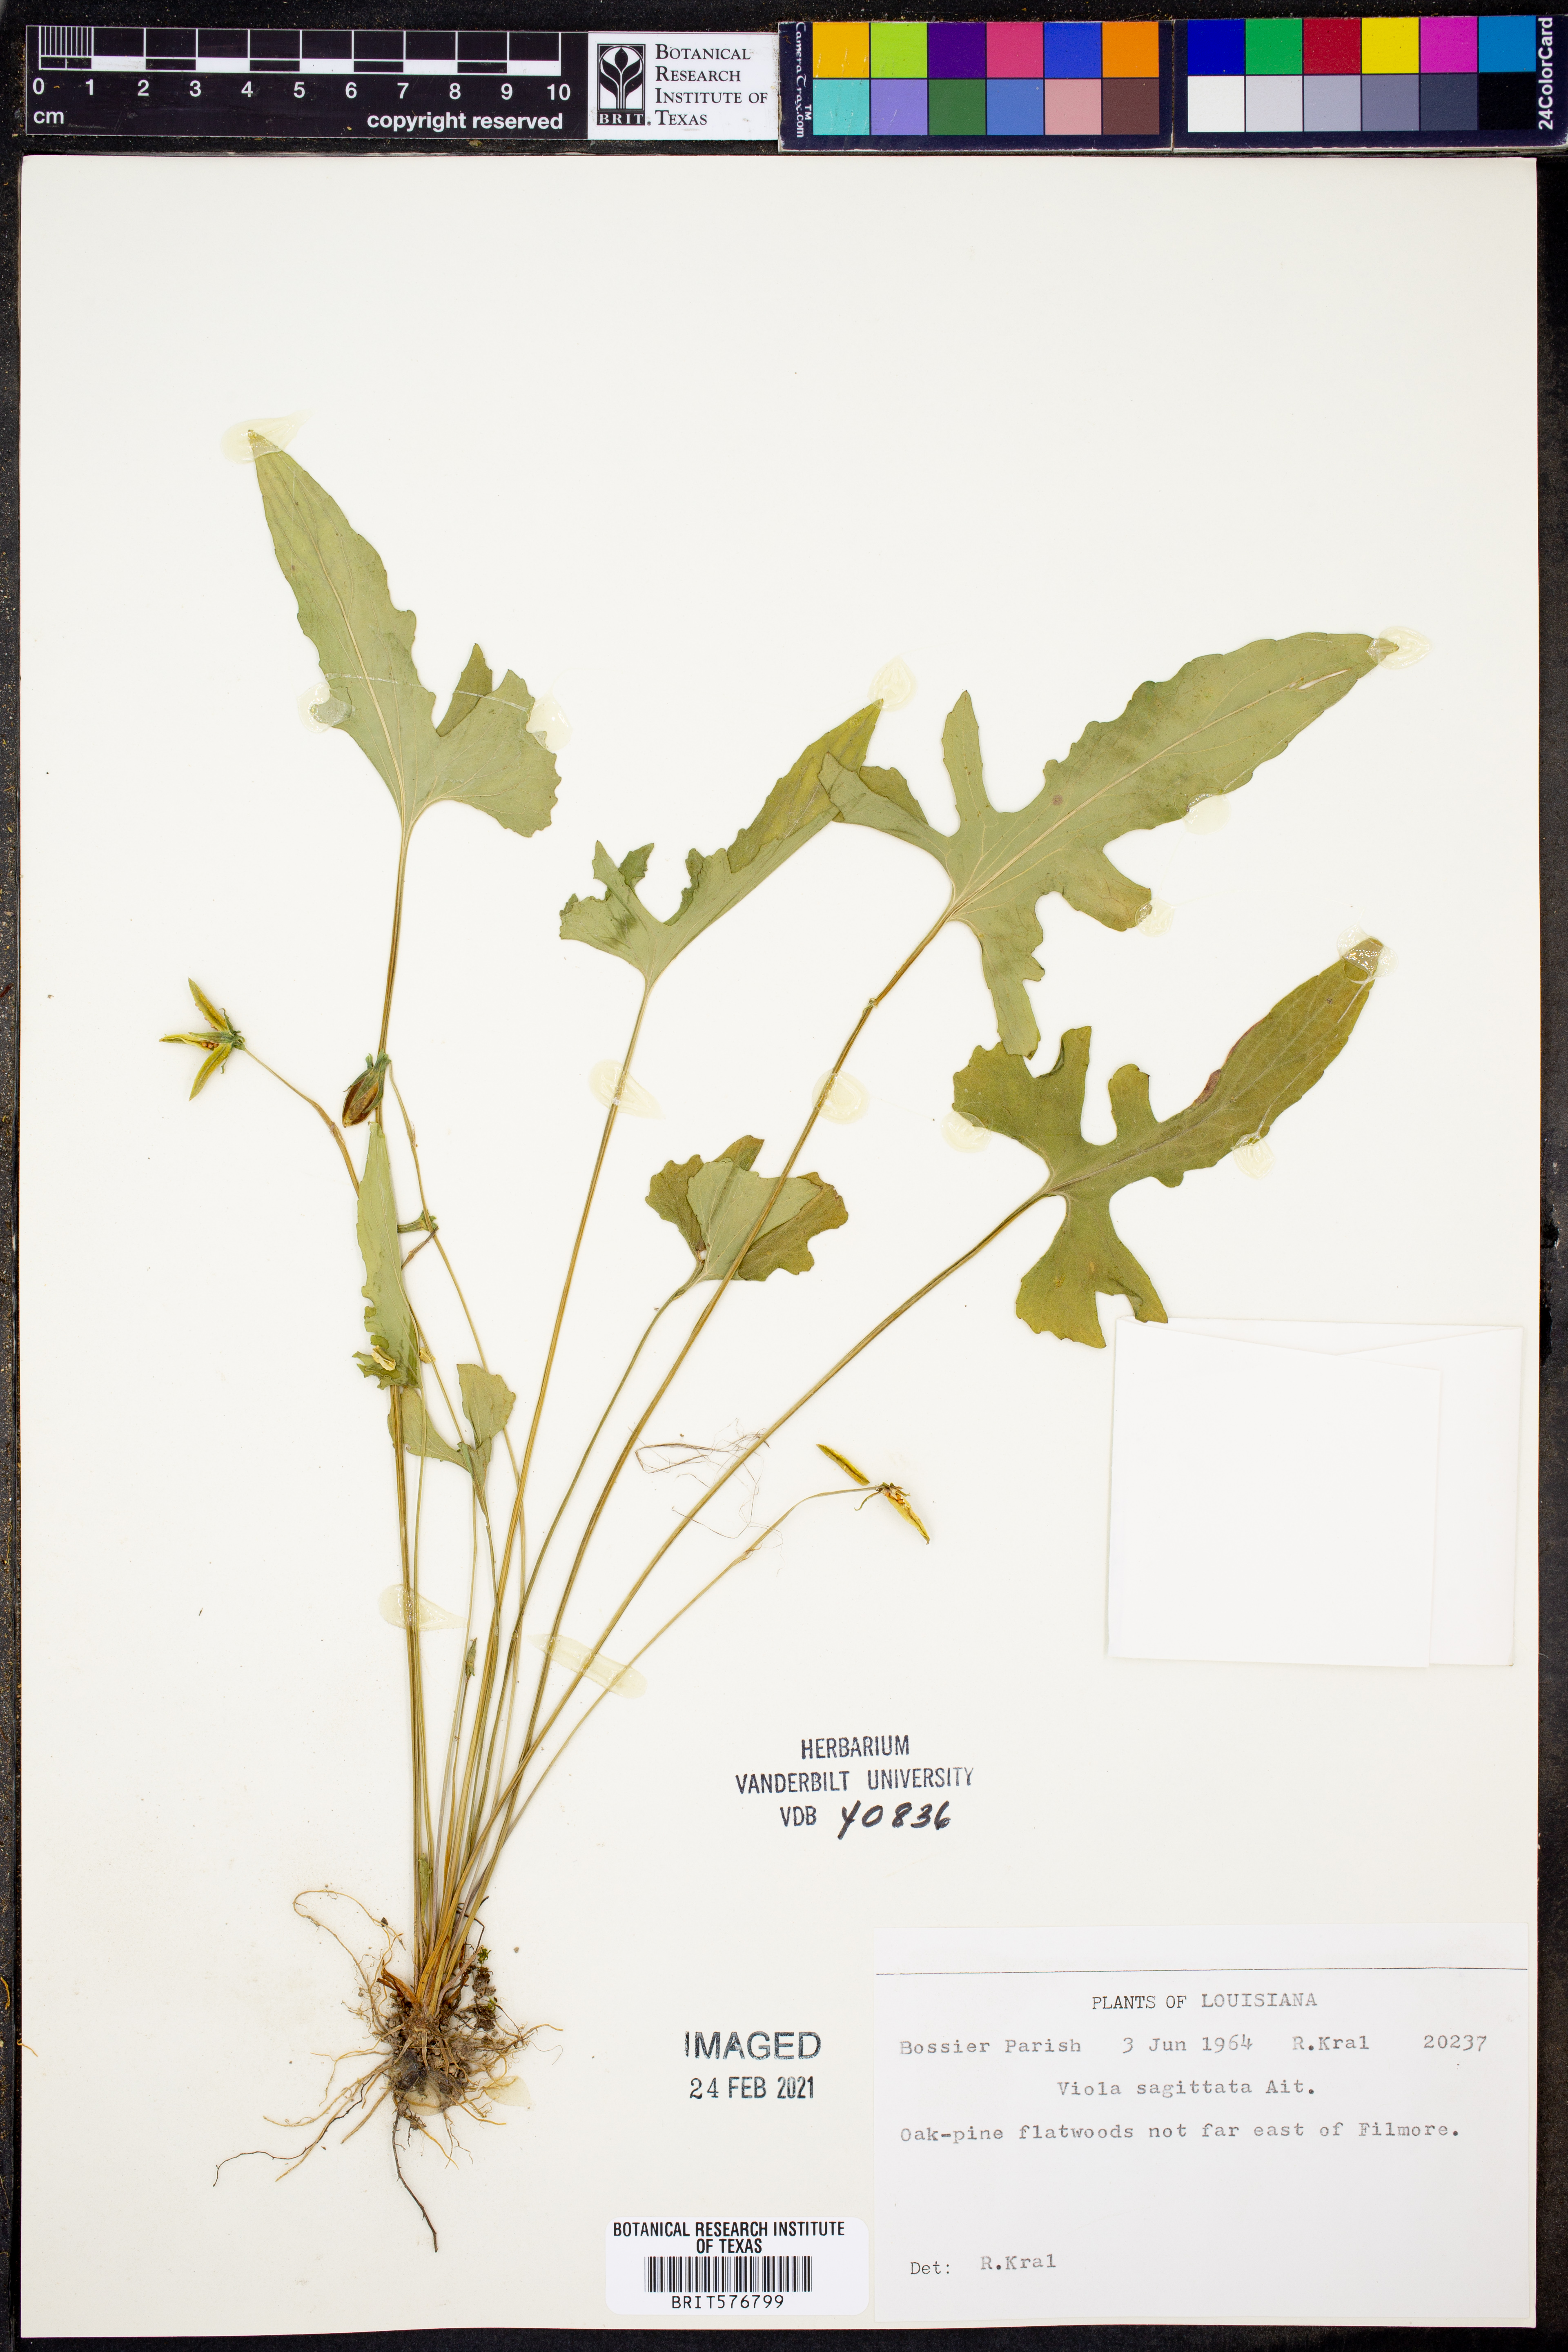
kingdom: Plantae
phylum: Tracheophyta
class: Magnoliopsida
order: Malpighiales
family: Violaceae
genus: Viola
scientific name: Viola sagittata
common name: Arrowhead violet
